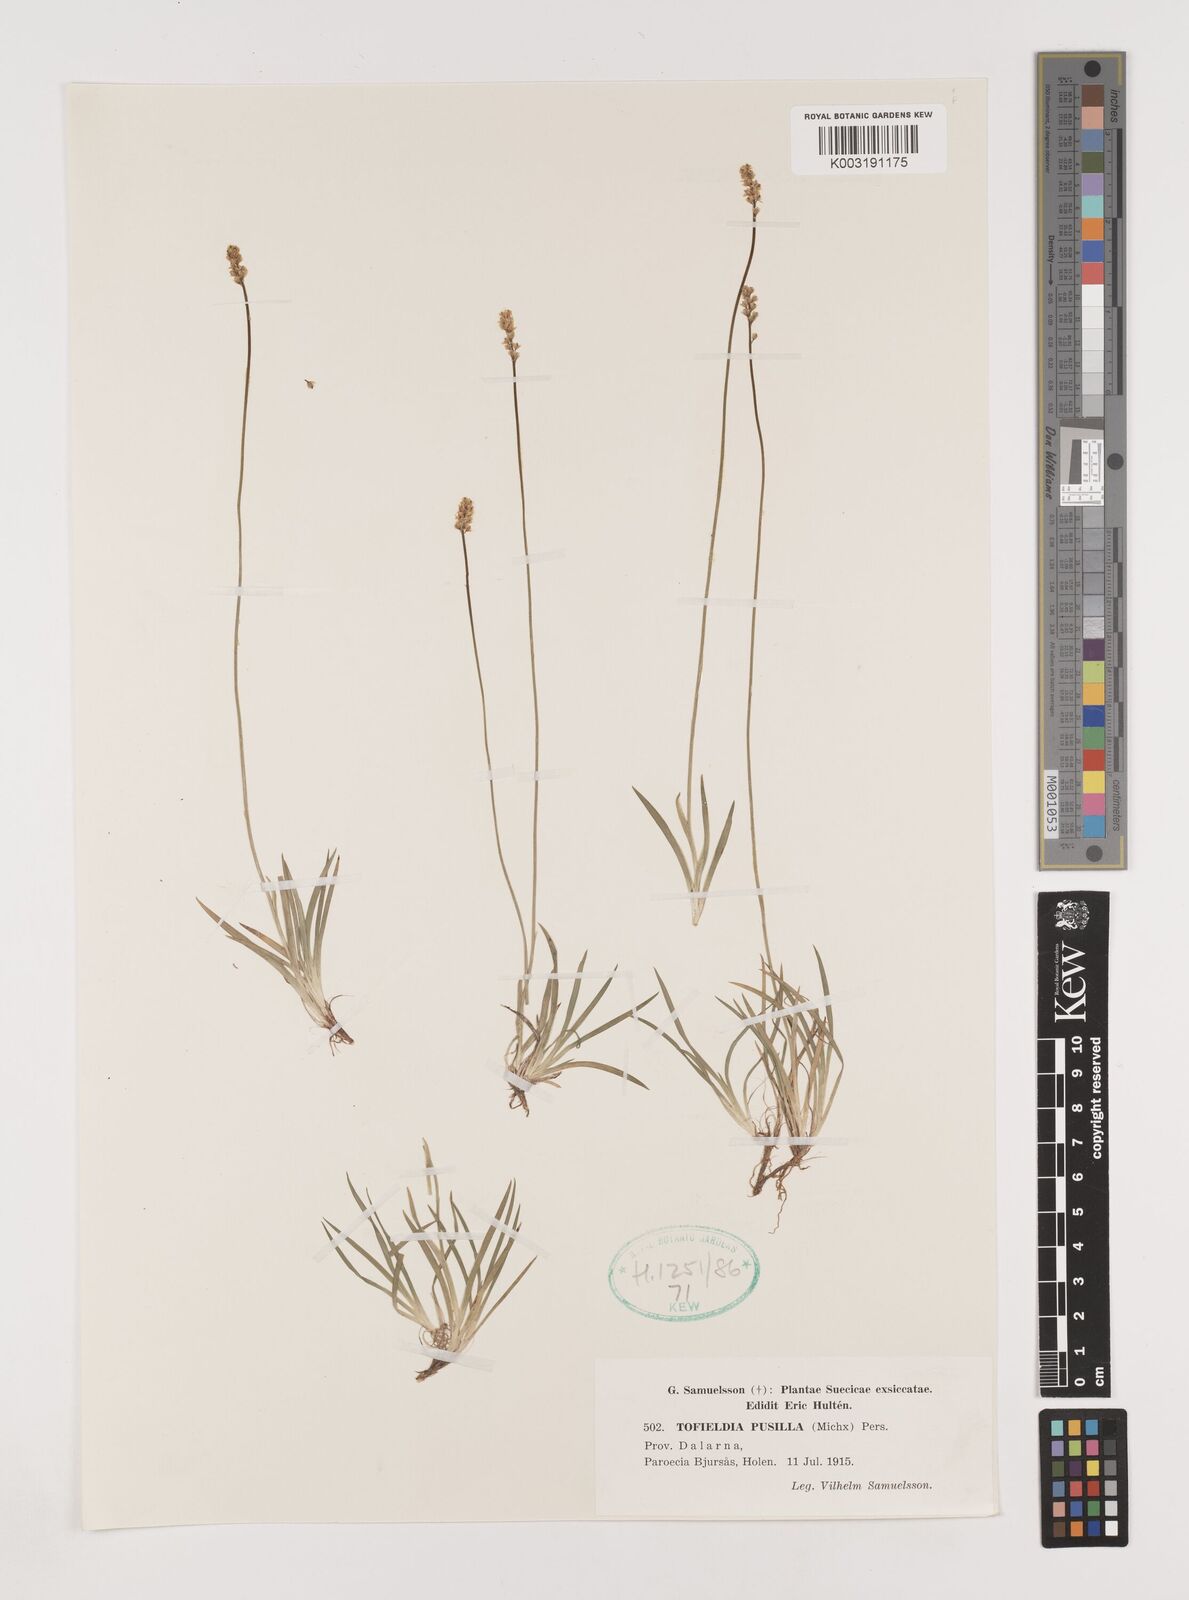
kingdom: Plantae
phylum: Tracheophyta
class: Liliopsida
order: Alismatales
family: Tofieldiaceae
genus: Tofieldia
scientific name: Tofieldia pusilla
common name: Scottish false asphodel
